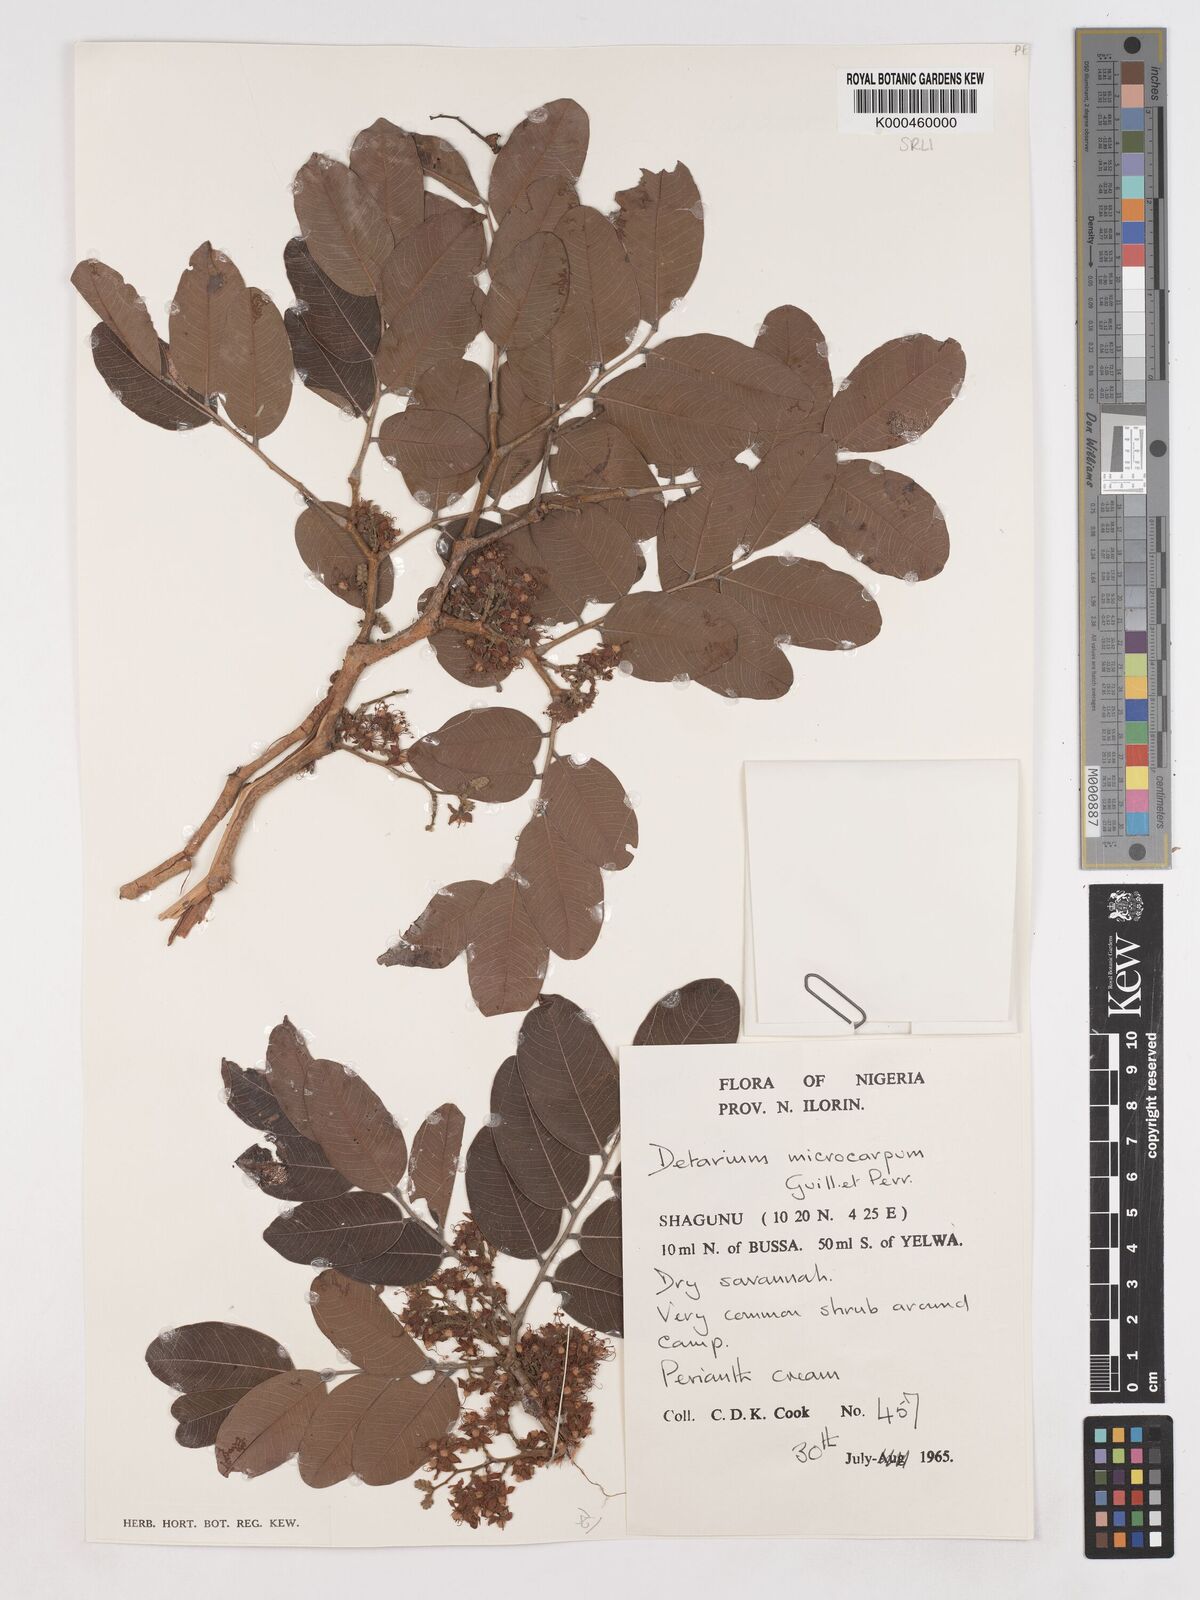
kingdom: Plantae
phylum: Tracheophyta
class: Magnoliopsida
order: Fabales
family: Fabaceae
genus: Detarium
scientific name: Detarium microcarpum
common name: Sweet dattock
